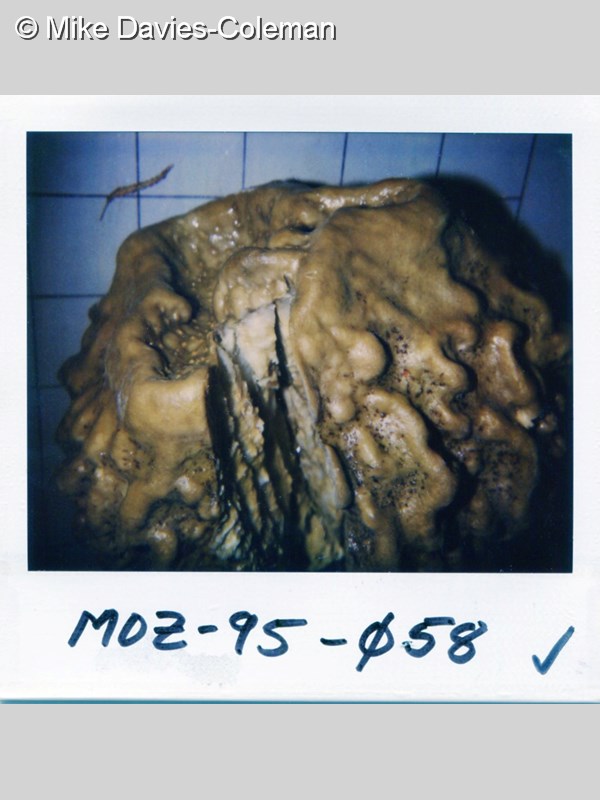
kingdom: Animalia
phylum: Porifera
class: Demospongiae
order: Clionaida
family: Spirastrellidae
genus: Spirastrella
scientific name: Spirastrella
